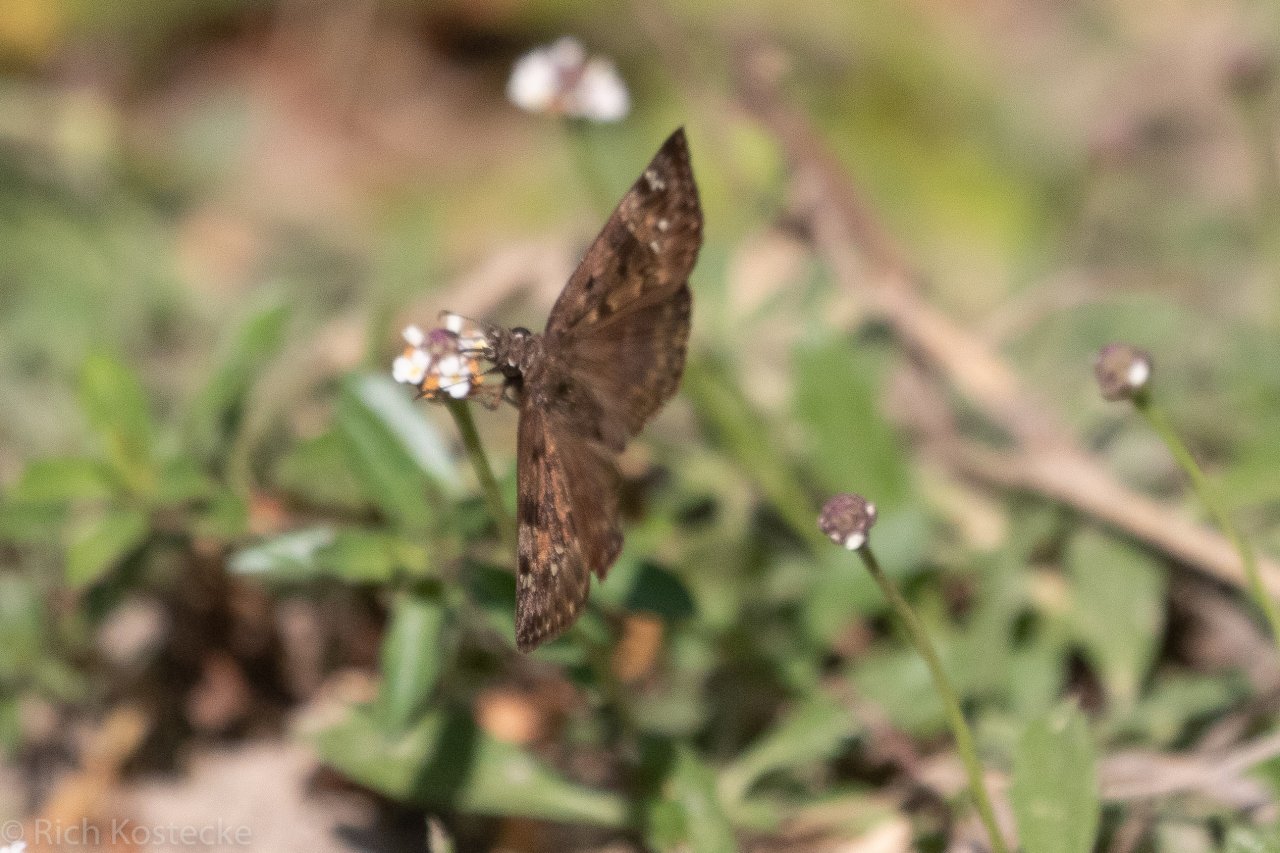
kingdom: Animalia
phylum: Arthropoda
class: Insecta
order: Lepidoptera
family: Hesperiidae
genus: Gesta
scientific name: Gesta
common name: Horace's Duskywing
